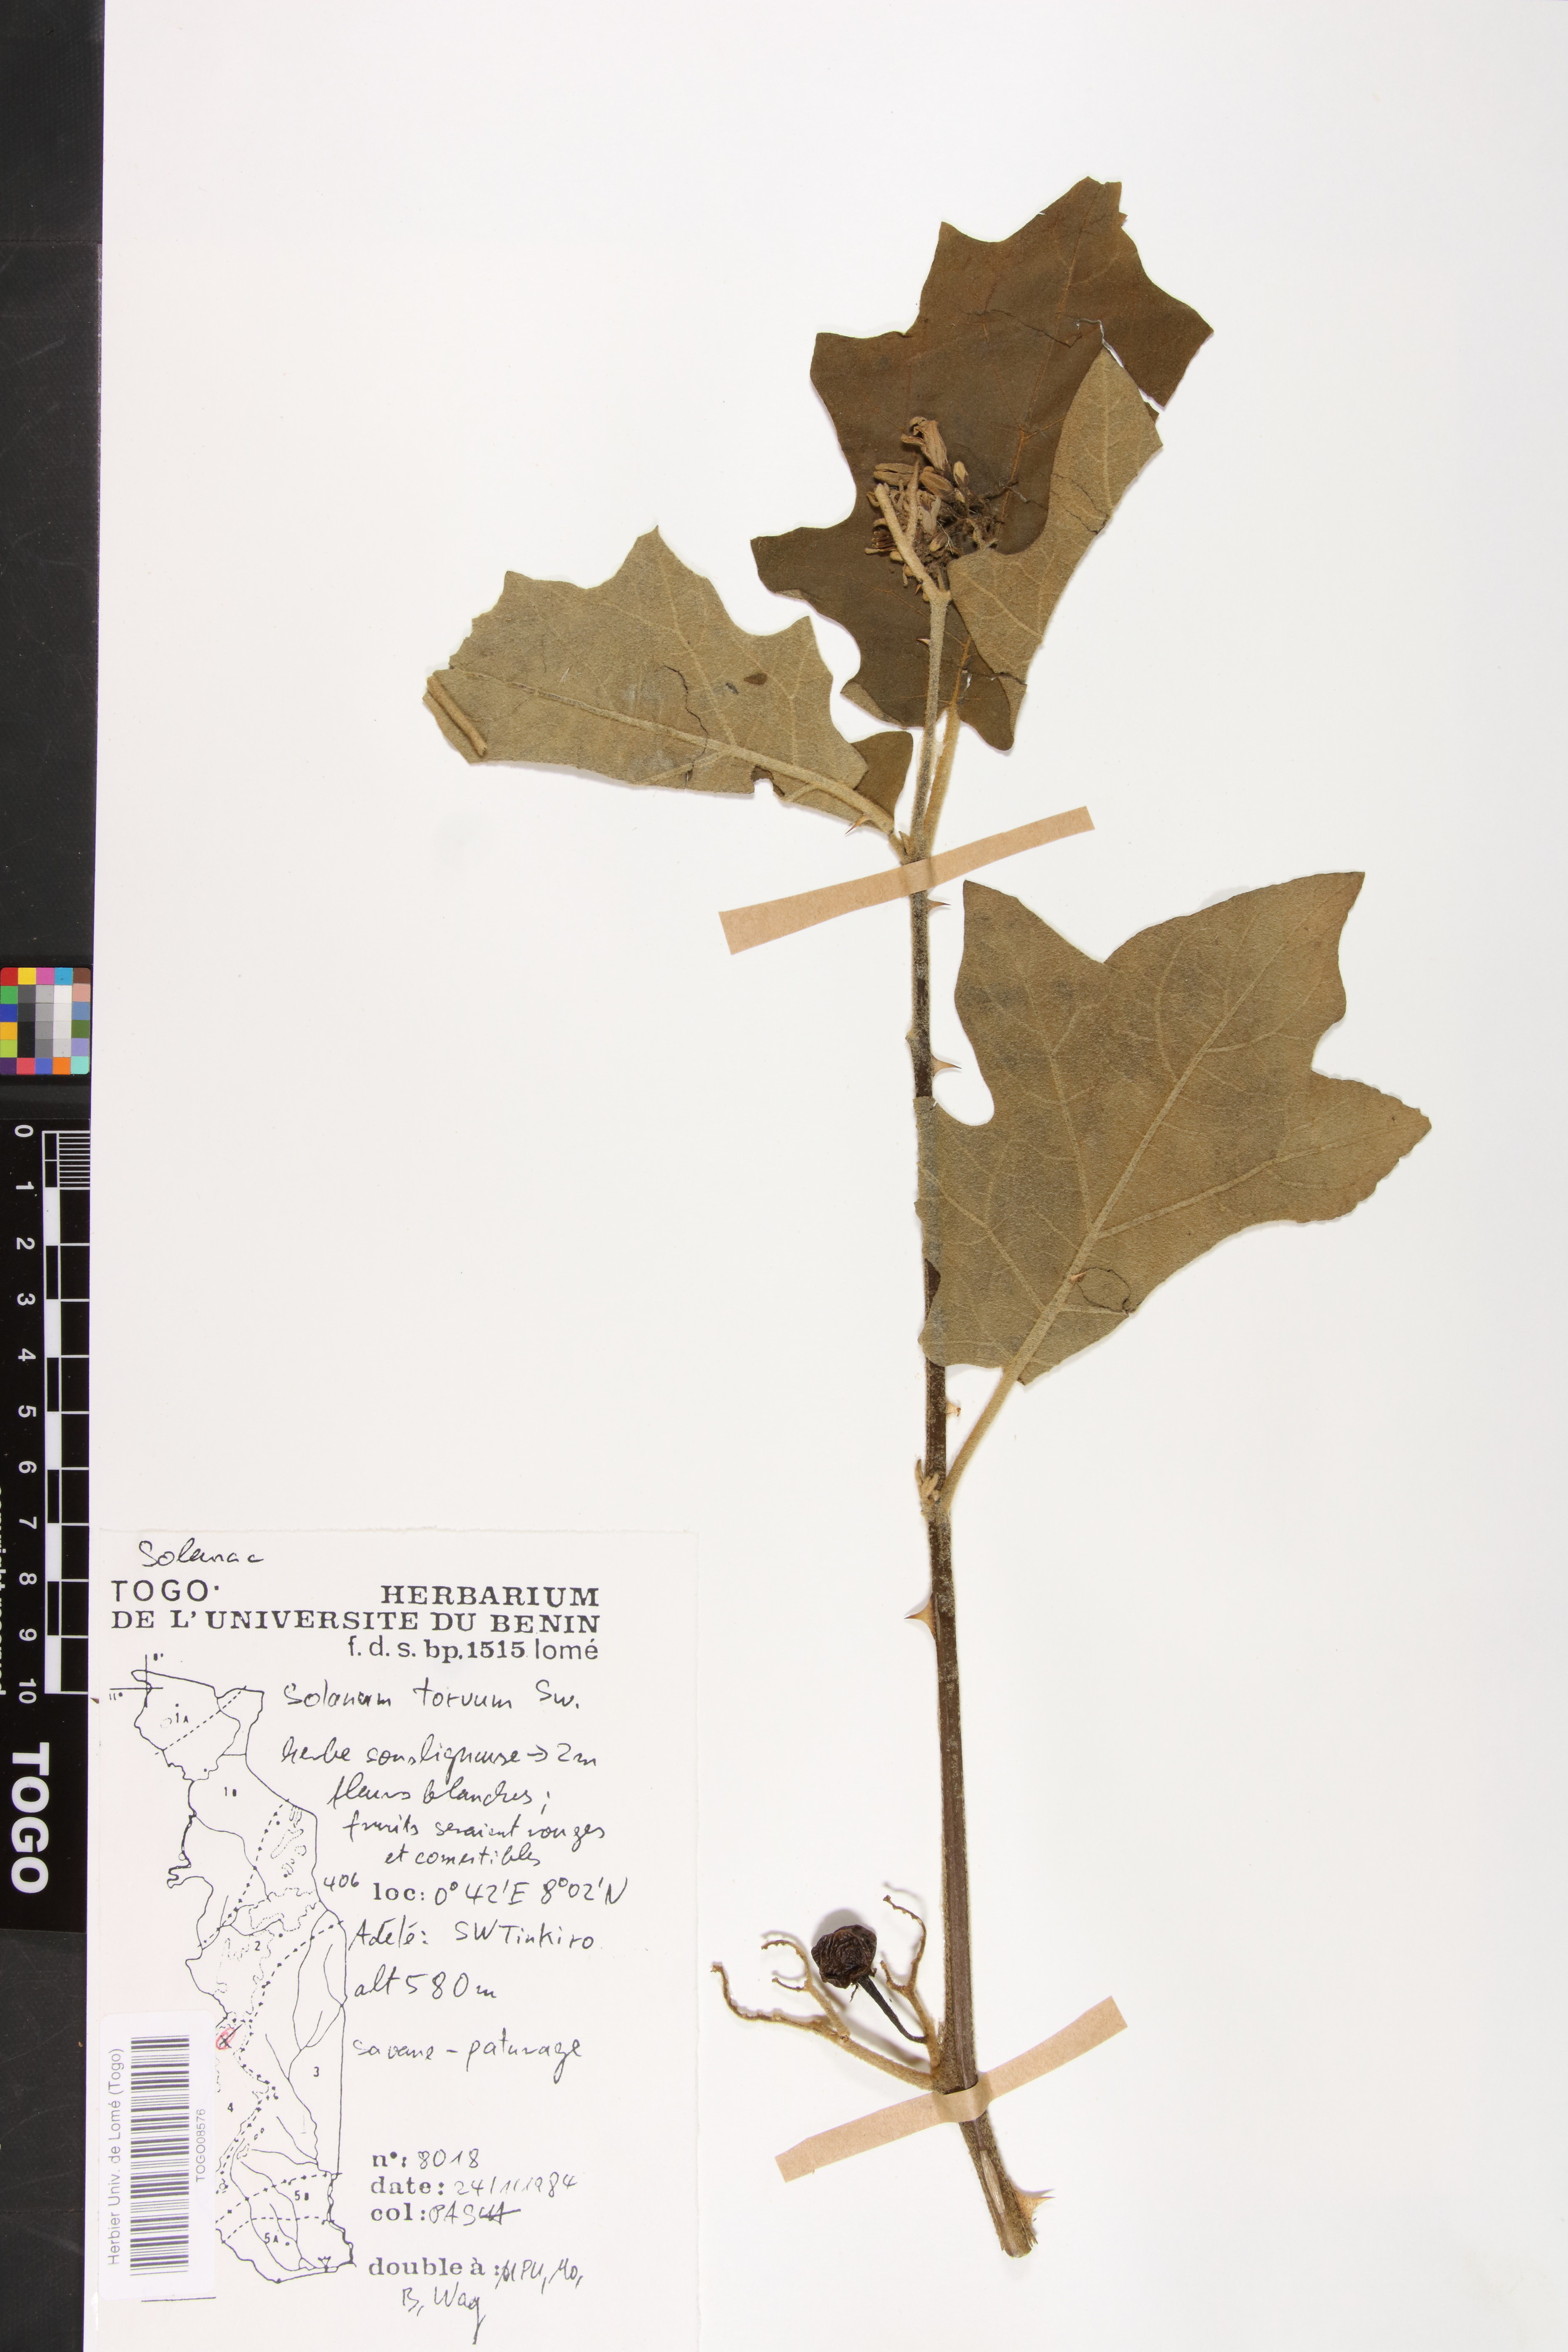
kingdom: Plantae
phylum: Tracheophyta
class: Magnoliopsida
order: Solanales
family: Solanaceae
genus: Solanum
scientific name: Solanum torvum
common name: Turkey berry
